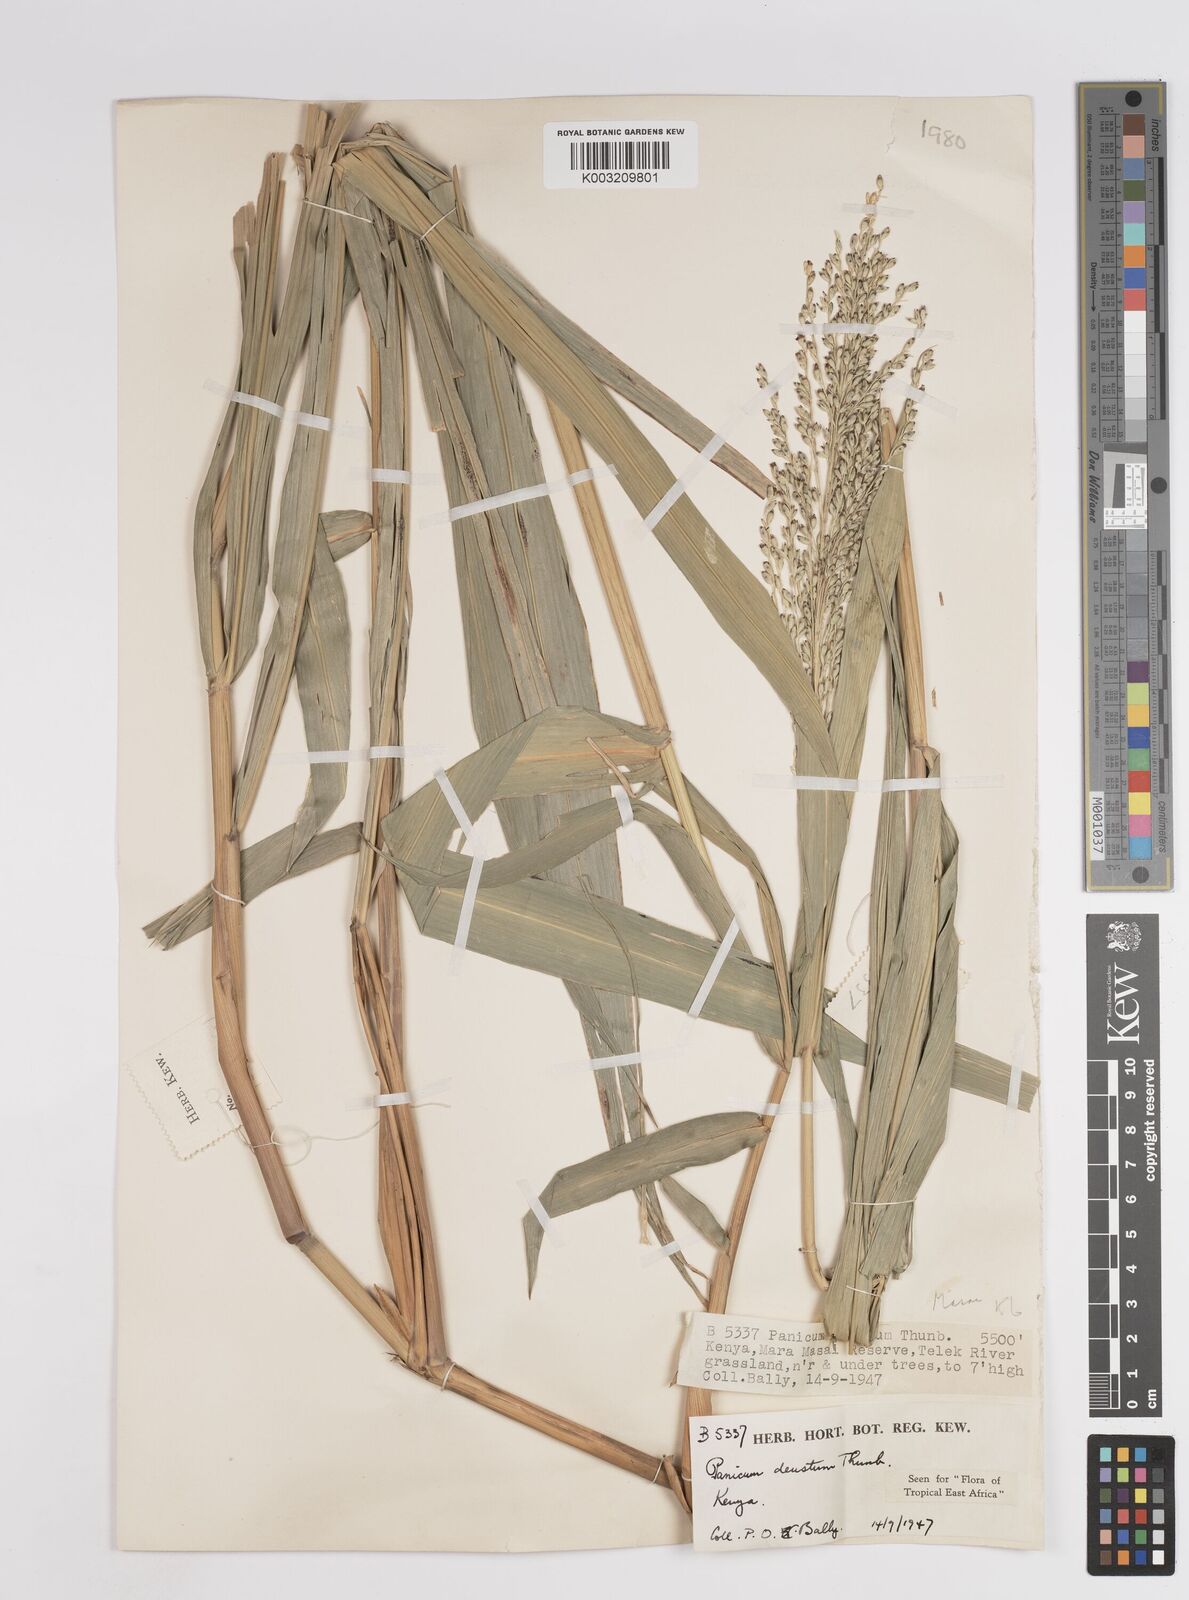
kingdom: Plantae
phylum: Tracheophyta
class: Liliopsida
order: Poales
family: Poaceae
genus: Panicum
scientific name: Panicum deustum
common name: Reed panicum
